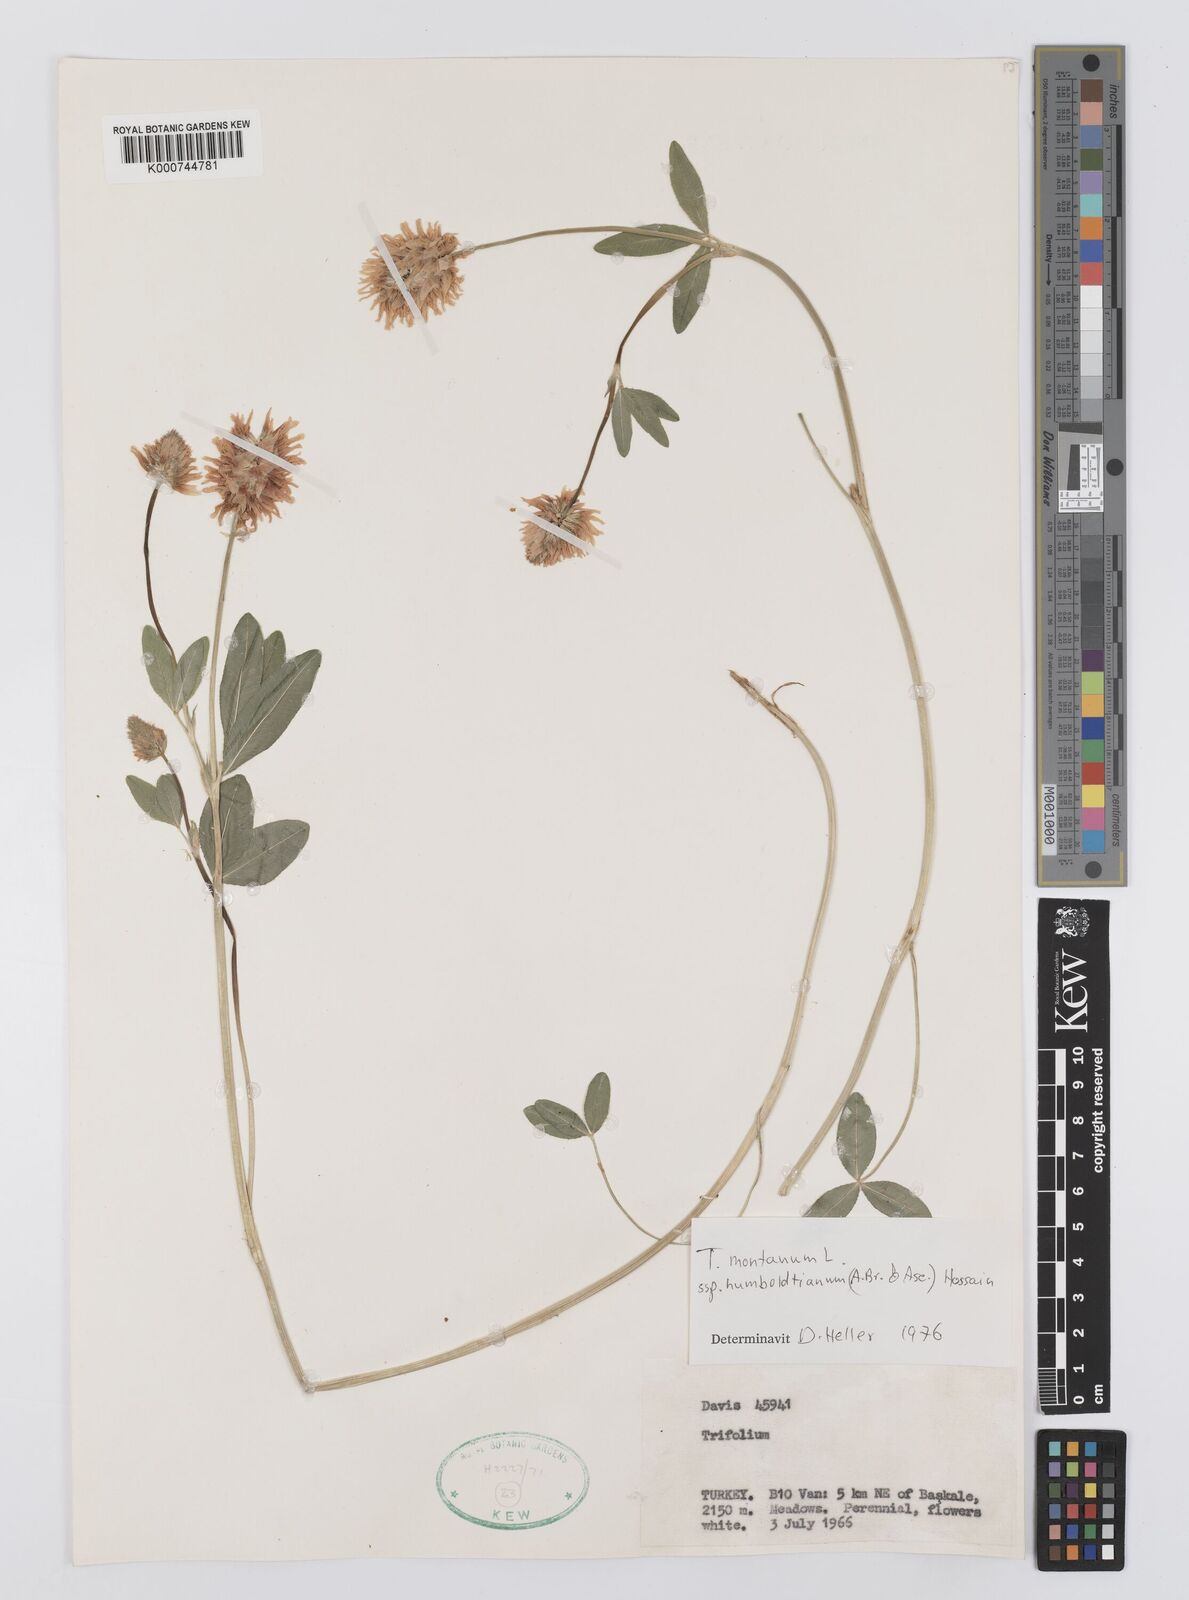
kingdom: Plantae
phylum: Tracheophyta
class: Magnoliopsida
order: Fabales
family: Fabaceae
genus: Trifolium
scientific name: Trifolium
